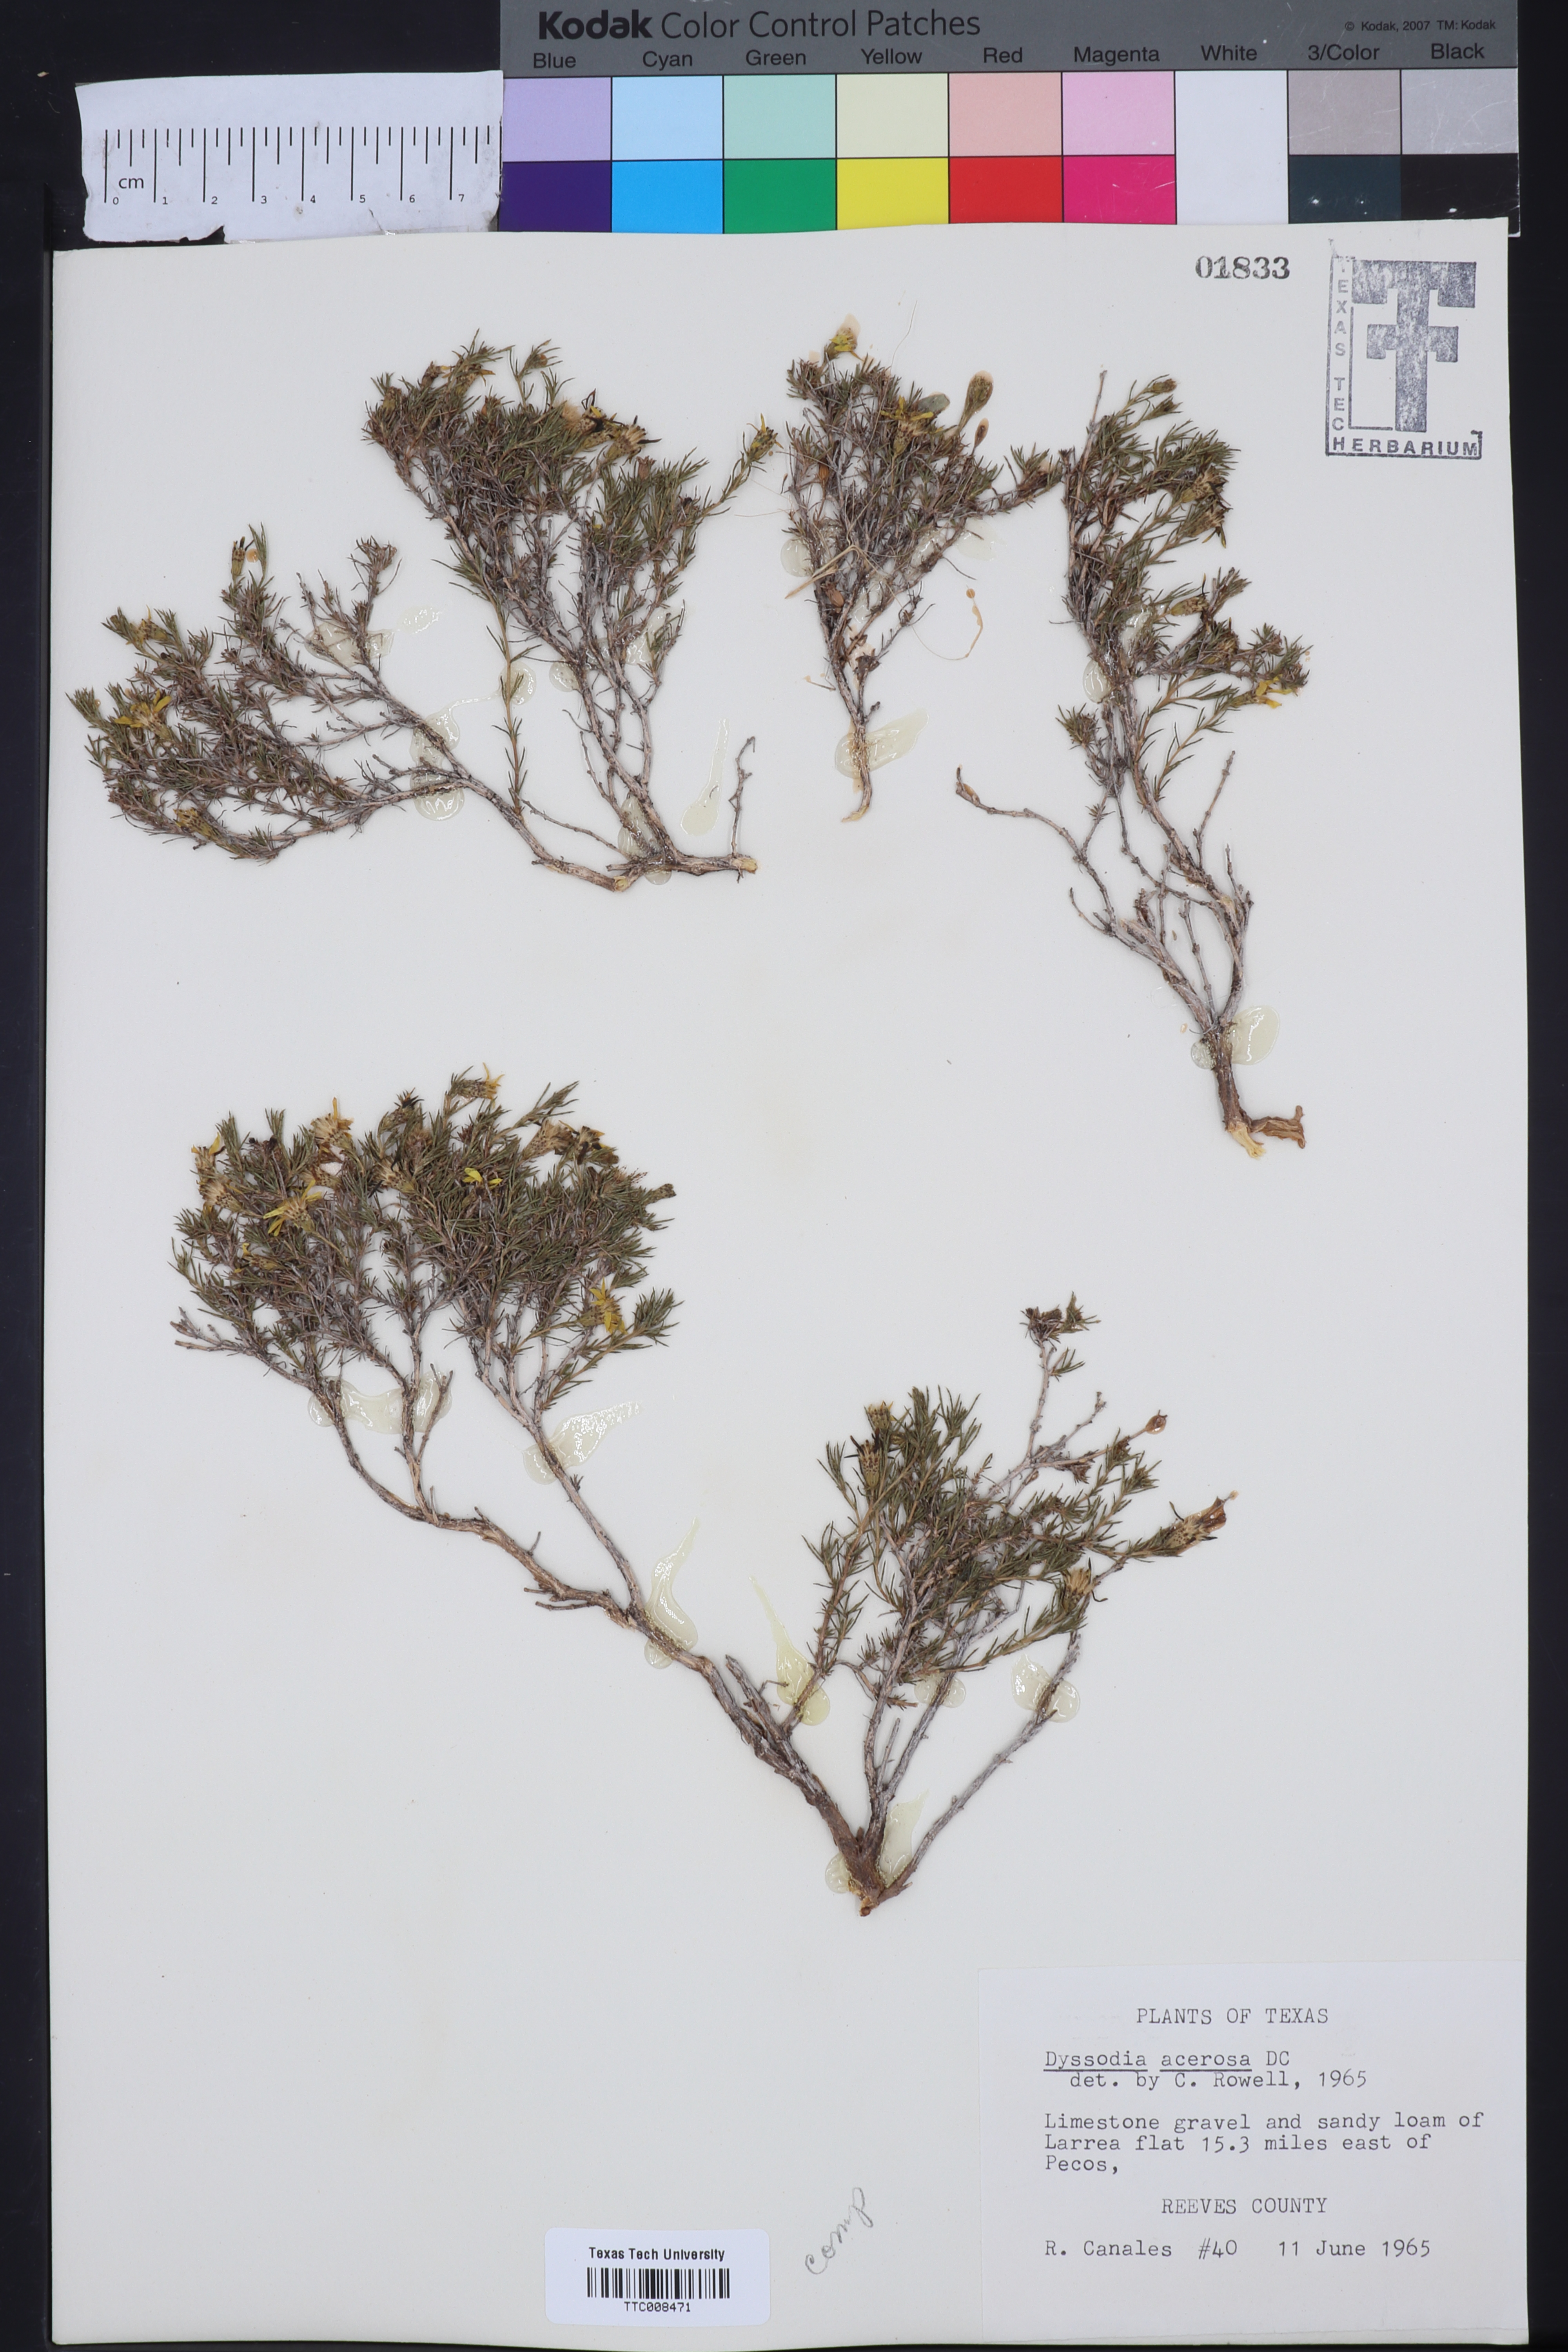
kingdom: Plantae
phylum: Tracheophyta
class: Magnoliopsida
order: Asterales
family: Asteraceae
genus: Thymophylla
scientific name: Thymophylla acerosa
